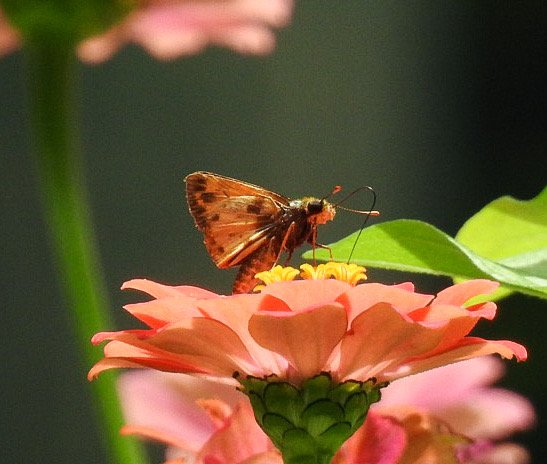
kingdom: Animalia
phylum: Arthropoda
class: Insecta
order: Lepidoptera
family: Hesperiidae
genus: Hylephila
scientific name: Hylephila phyleus
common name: Fiery Skipper
